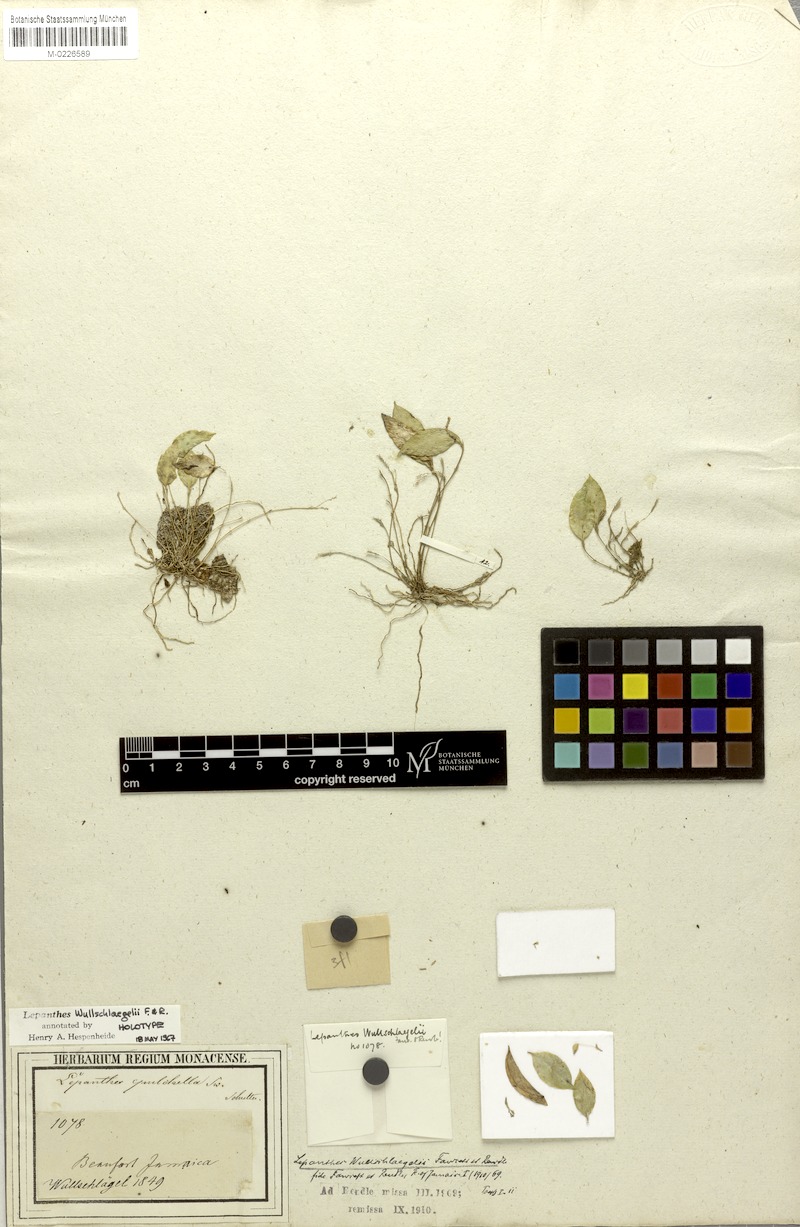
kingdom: Plantae
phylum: Tracheophyta
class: Liliopsida
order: Asparagales
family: Orchidaceae
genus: Lepanthes
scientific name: Lepanthes wullschlaegelii
